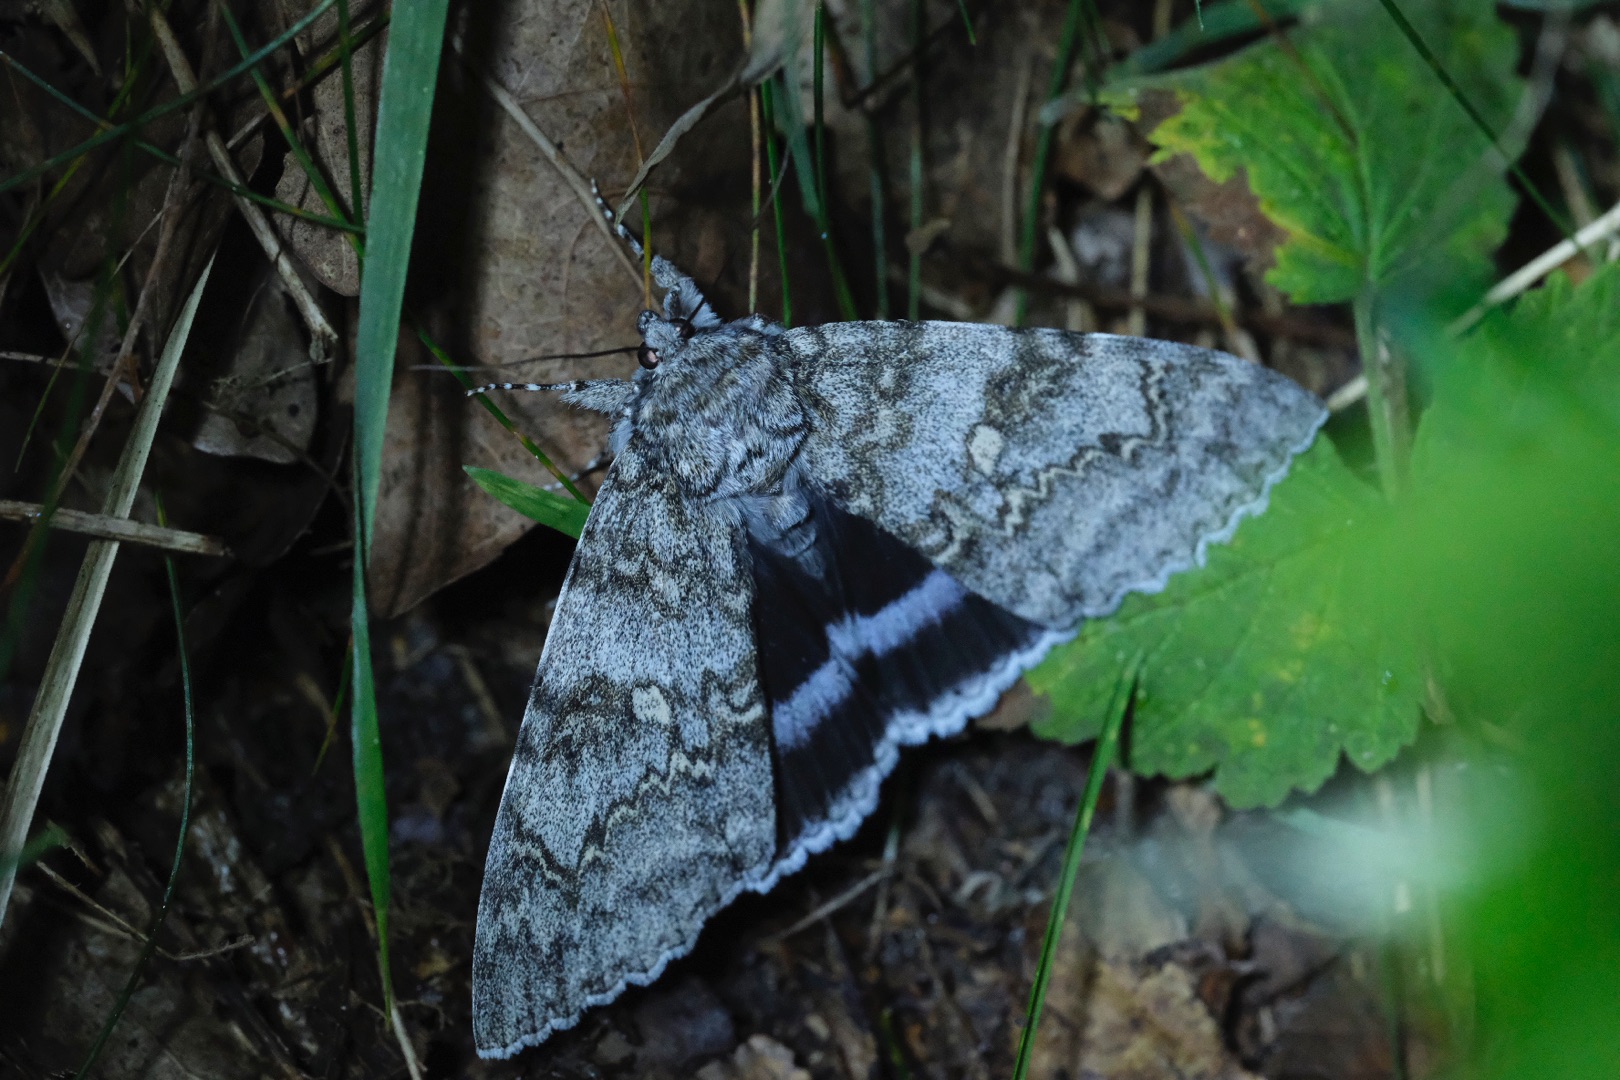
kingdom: Animalia
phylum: Arthropoda
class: Insecta
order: Lepidoptera
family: Erebidae
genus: Catocala
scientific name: Catocala fraxini
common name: Blåt ordensbånd
